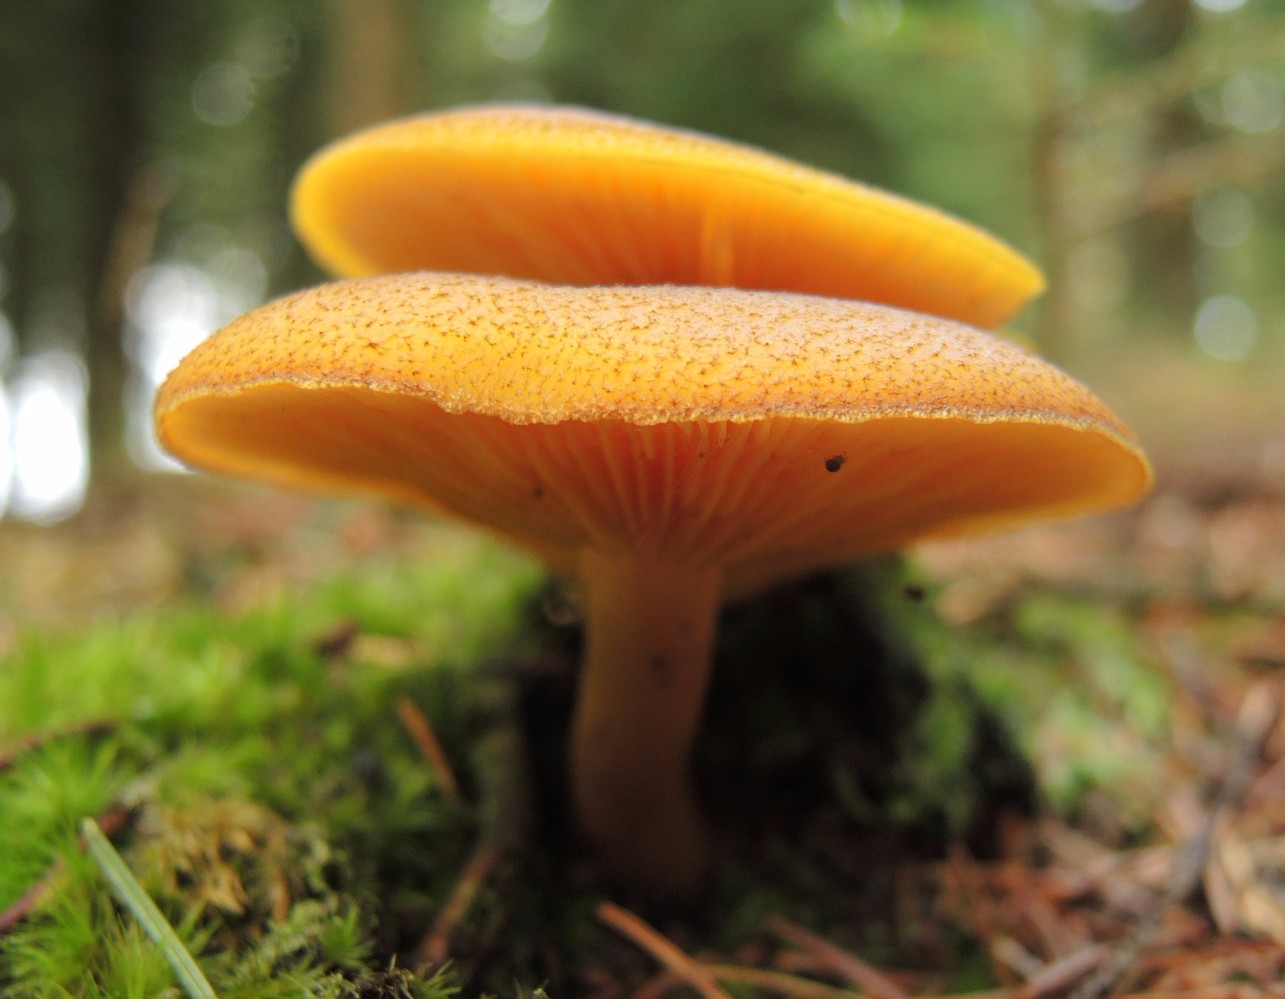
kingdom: Fungi
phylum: Basidiomycota
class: Agaricomycetes
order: Agaricales
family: Tricholomataceae
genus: Tricholomopsis
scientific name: Tricholomopsis decora
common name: sortskællet væbnerhat
